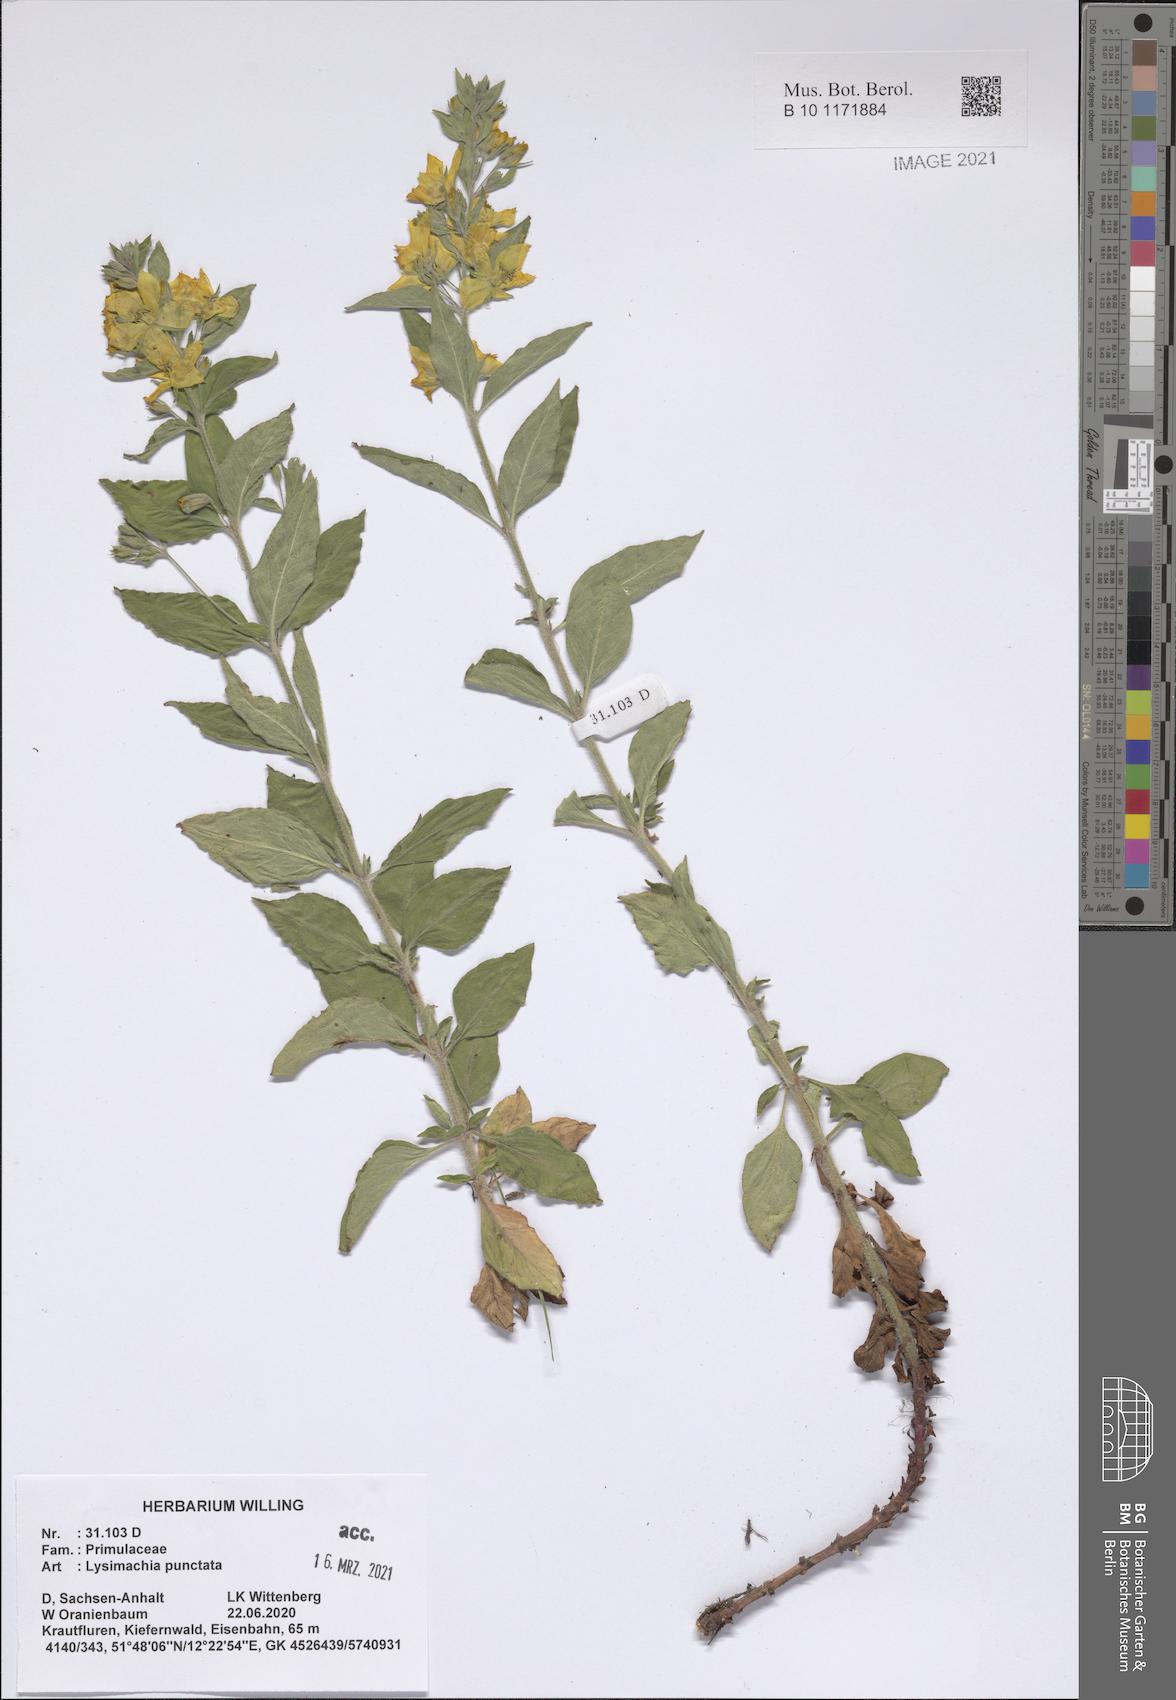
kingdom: Plantae
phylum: Tracheophyta
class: Magnoliopsida
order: Ericales
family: Primulaceae
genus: Lysimachia
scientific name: Lysimachia punctata
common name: Dotted loosestrife
